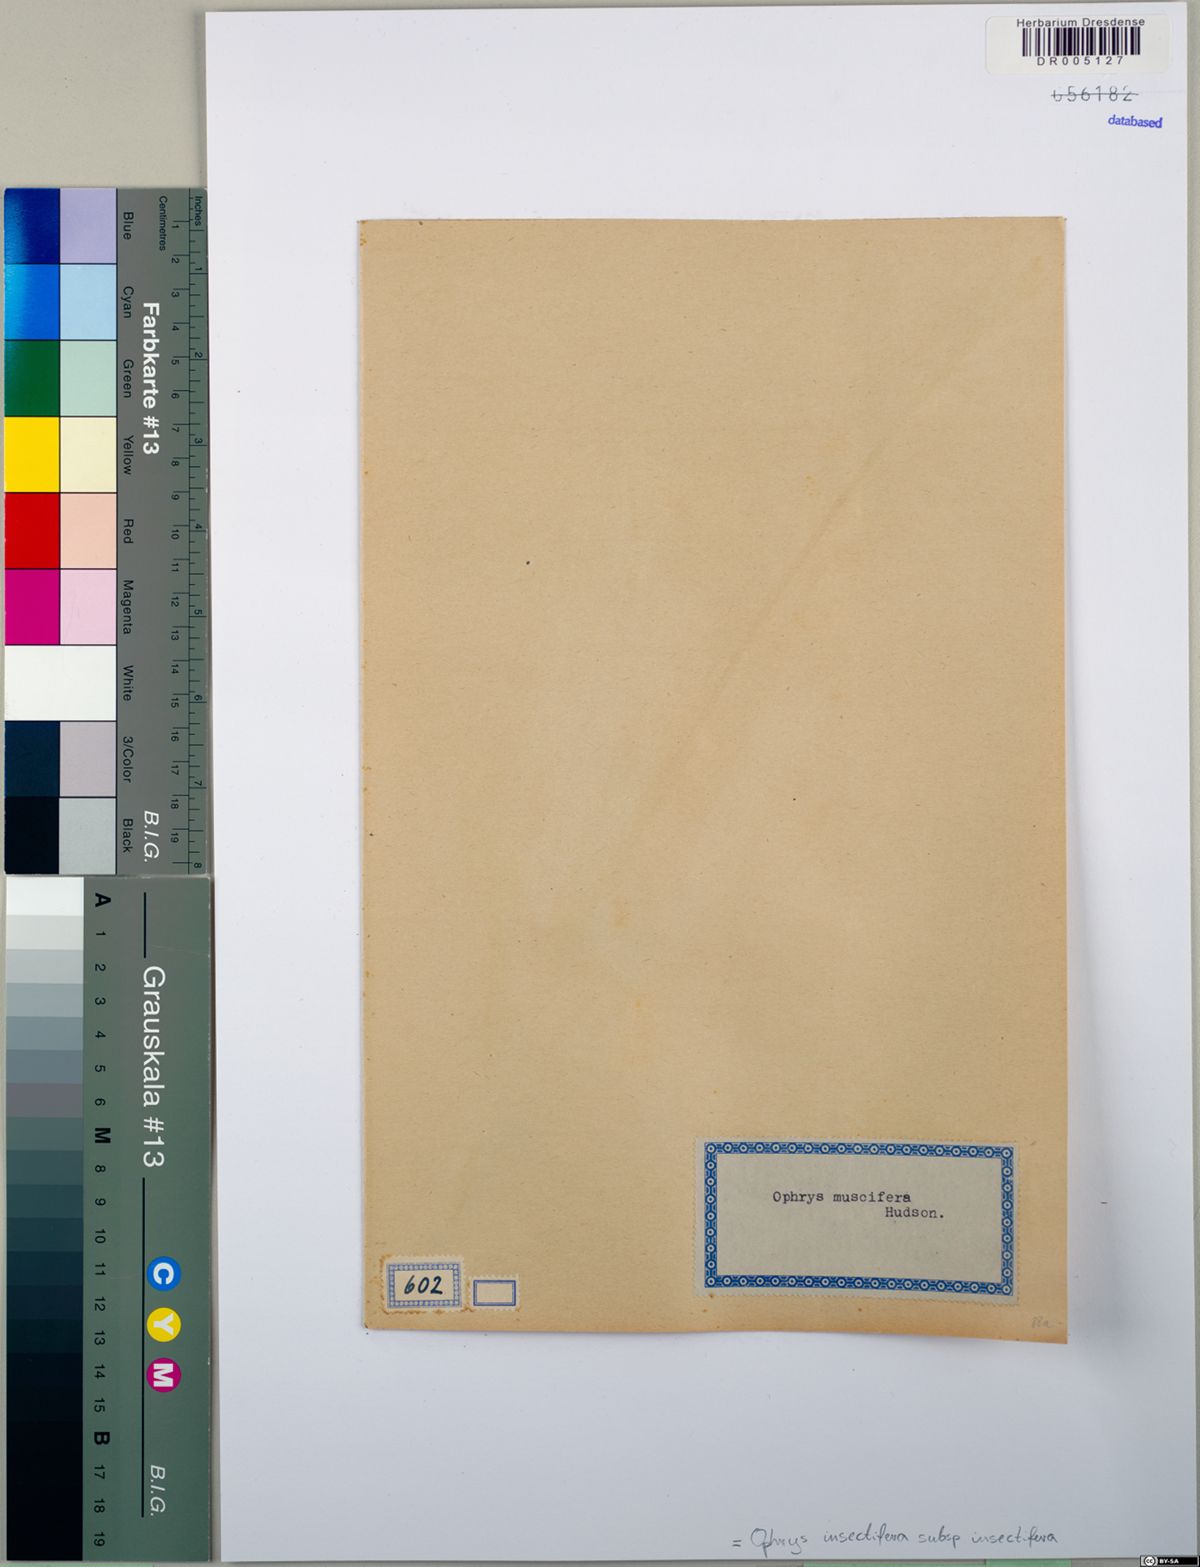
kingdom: Plantae
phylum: Tracheophyta
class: Liliopsida
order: Asparagales
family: Orchidaceae
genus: Ophrys
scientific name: Ophrys insectifera
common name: Fly orchid
